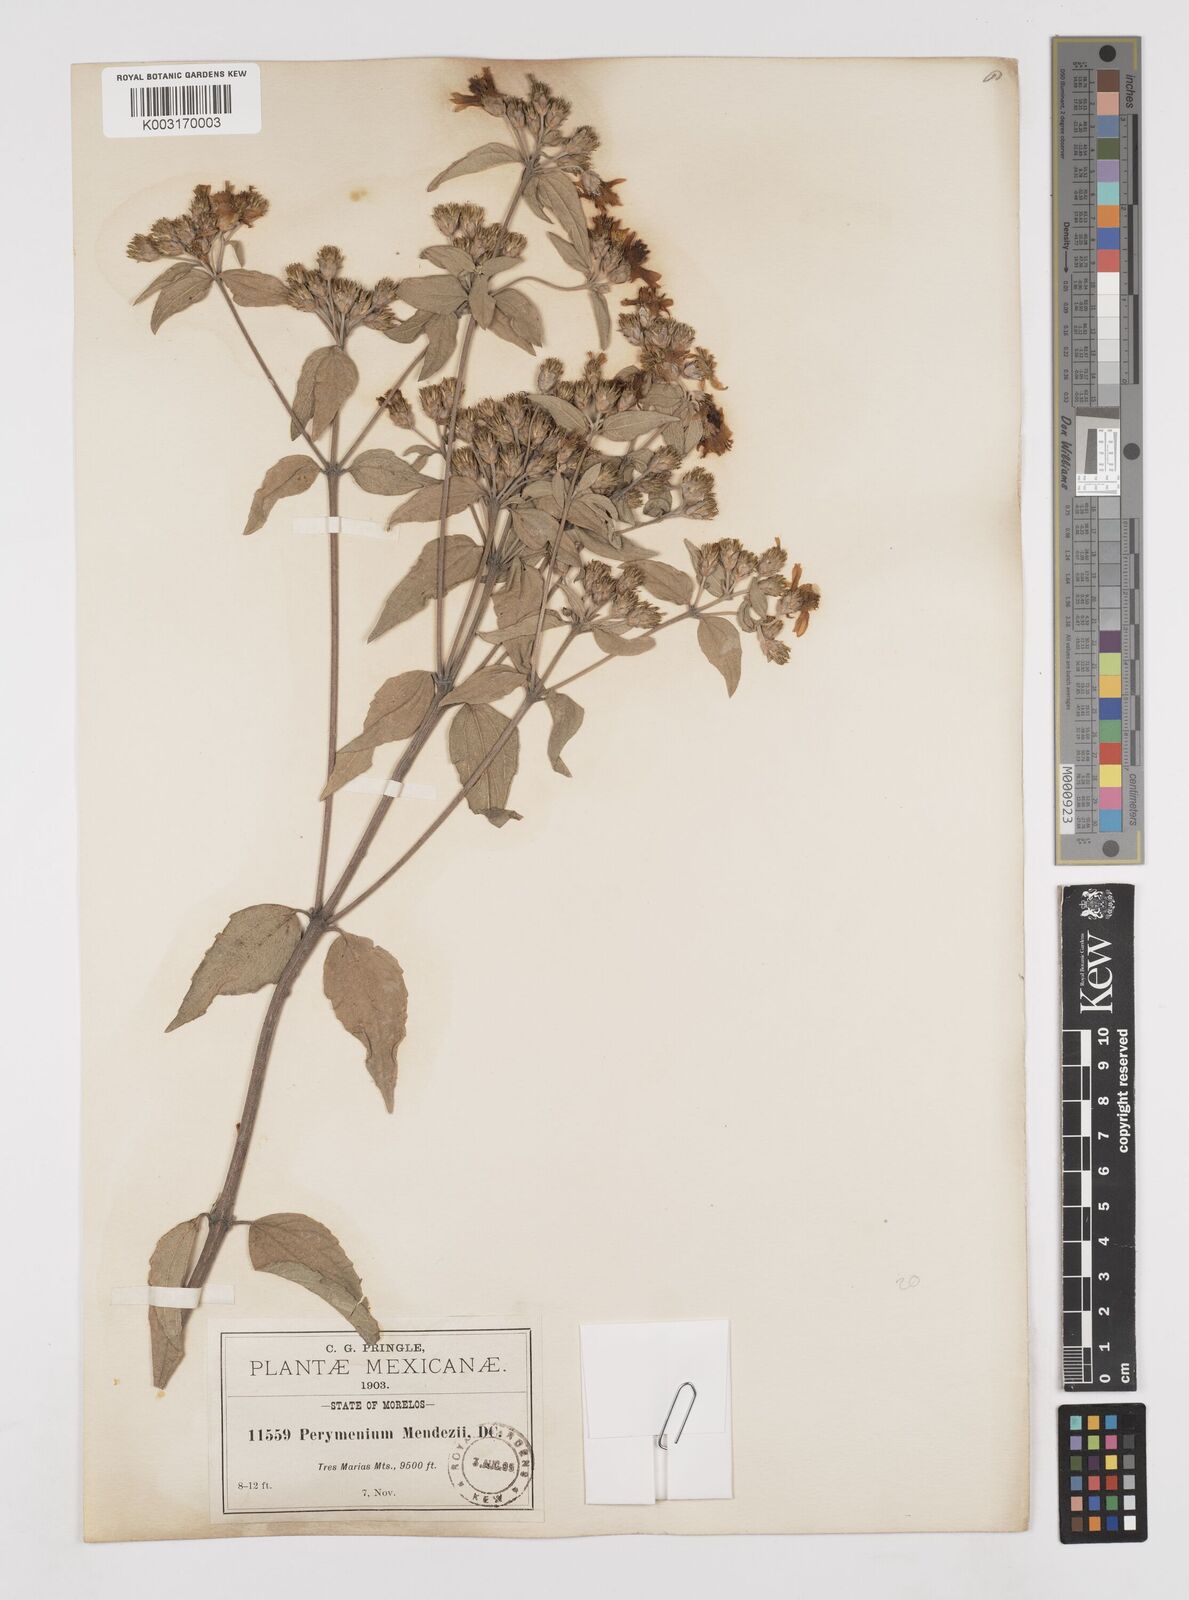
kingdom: Plantae
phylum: Tracheophyta
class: Magnoliopsida
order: Asterales
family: Asteraceae
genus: Perymenium
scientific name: Perymenium berlandieri
